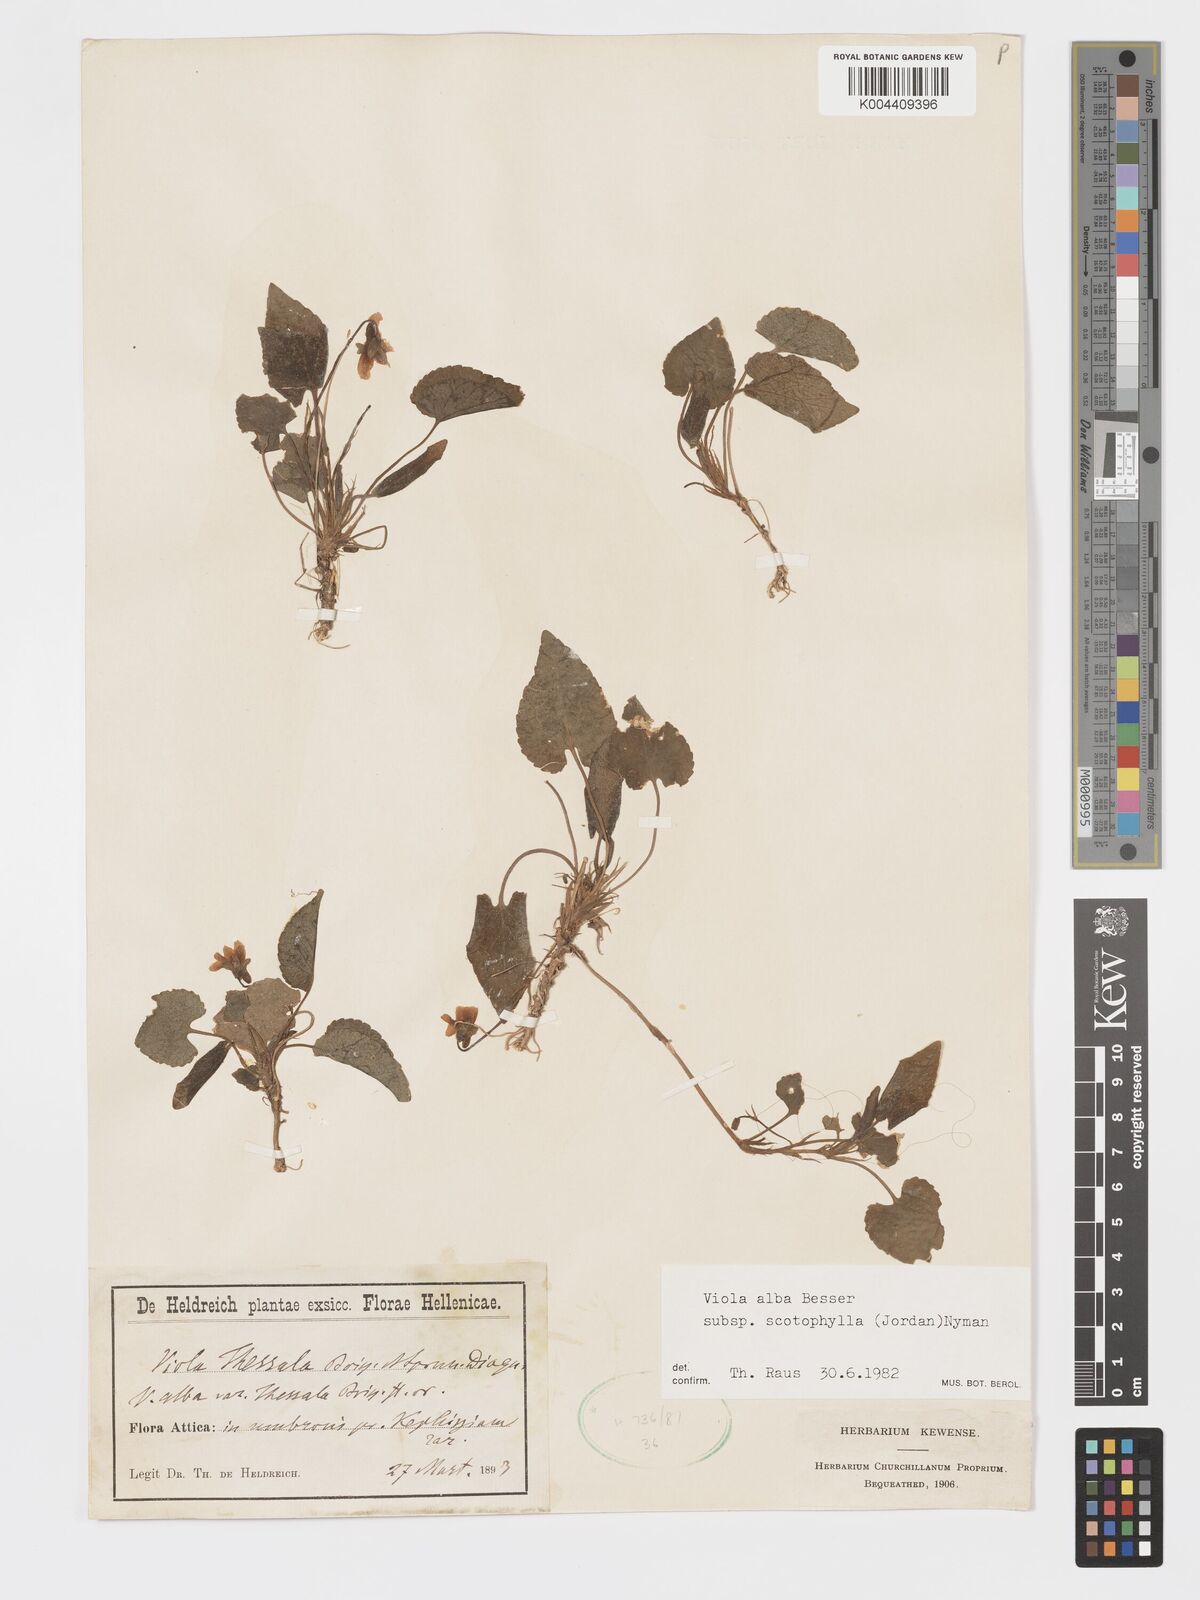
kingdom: Plantae
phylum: Tracheophyta
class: Magnoliopsida
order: Malpighiales
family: Violaceae
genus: Viola
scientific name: Viola alba
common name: White violet
